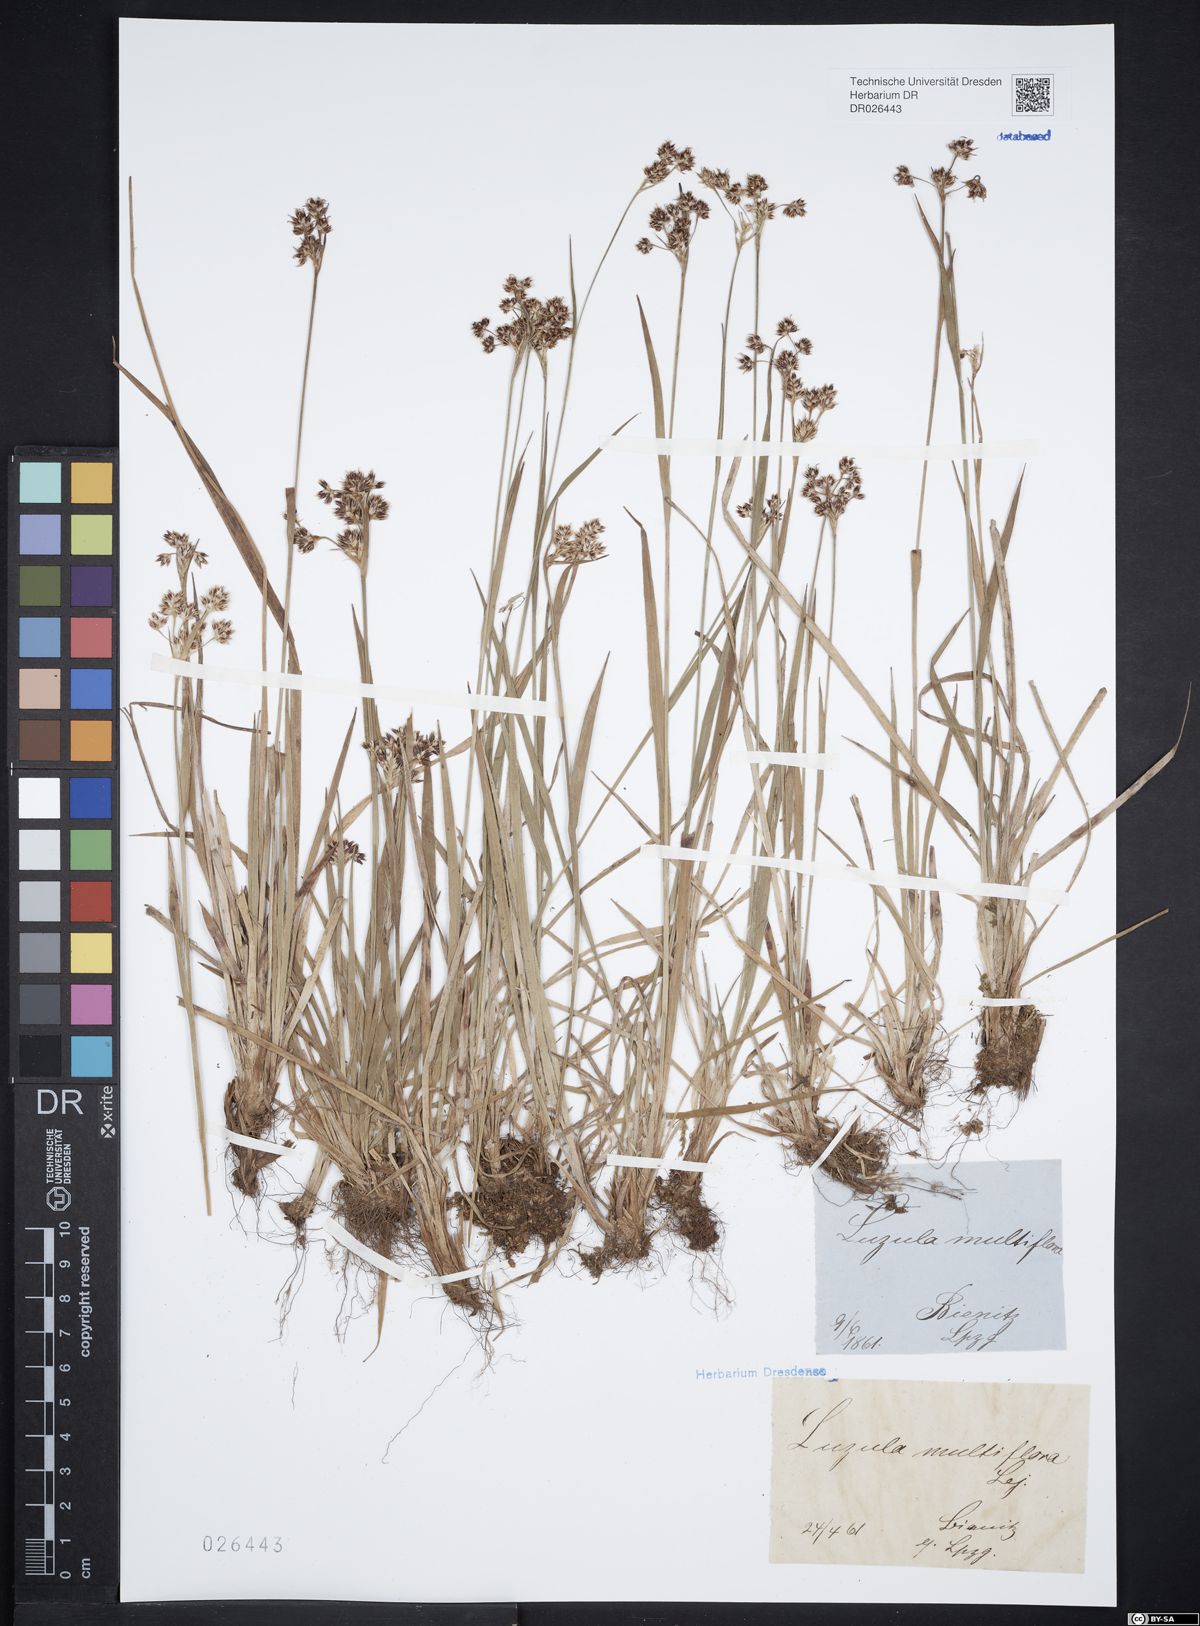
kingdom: Plantae
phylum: Tracheophyta
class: Liliopsida
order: Poales
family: Juncaceae
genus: Luzula
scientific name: Luzula multiflora
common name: Heath wood-rush
